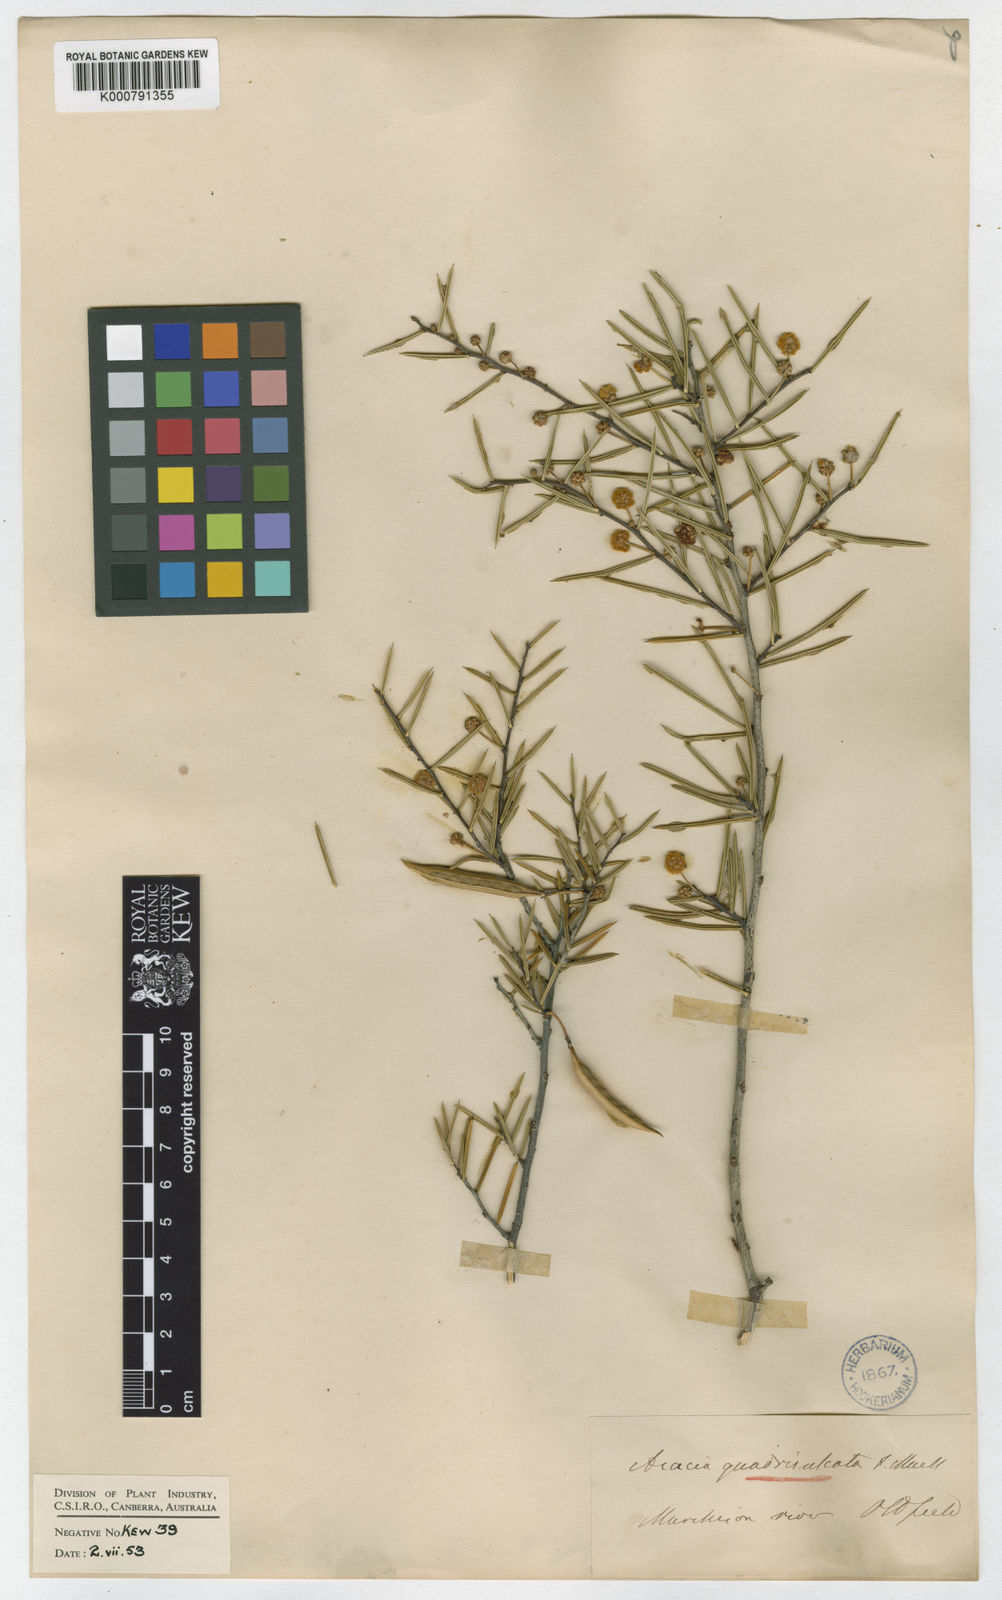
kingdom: Plantae
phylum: Tracheophyta
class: Magnoliopsida
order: Fabales
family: Fabaceae
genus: Acacia
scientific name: Acacia quadrisulcata
